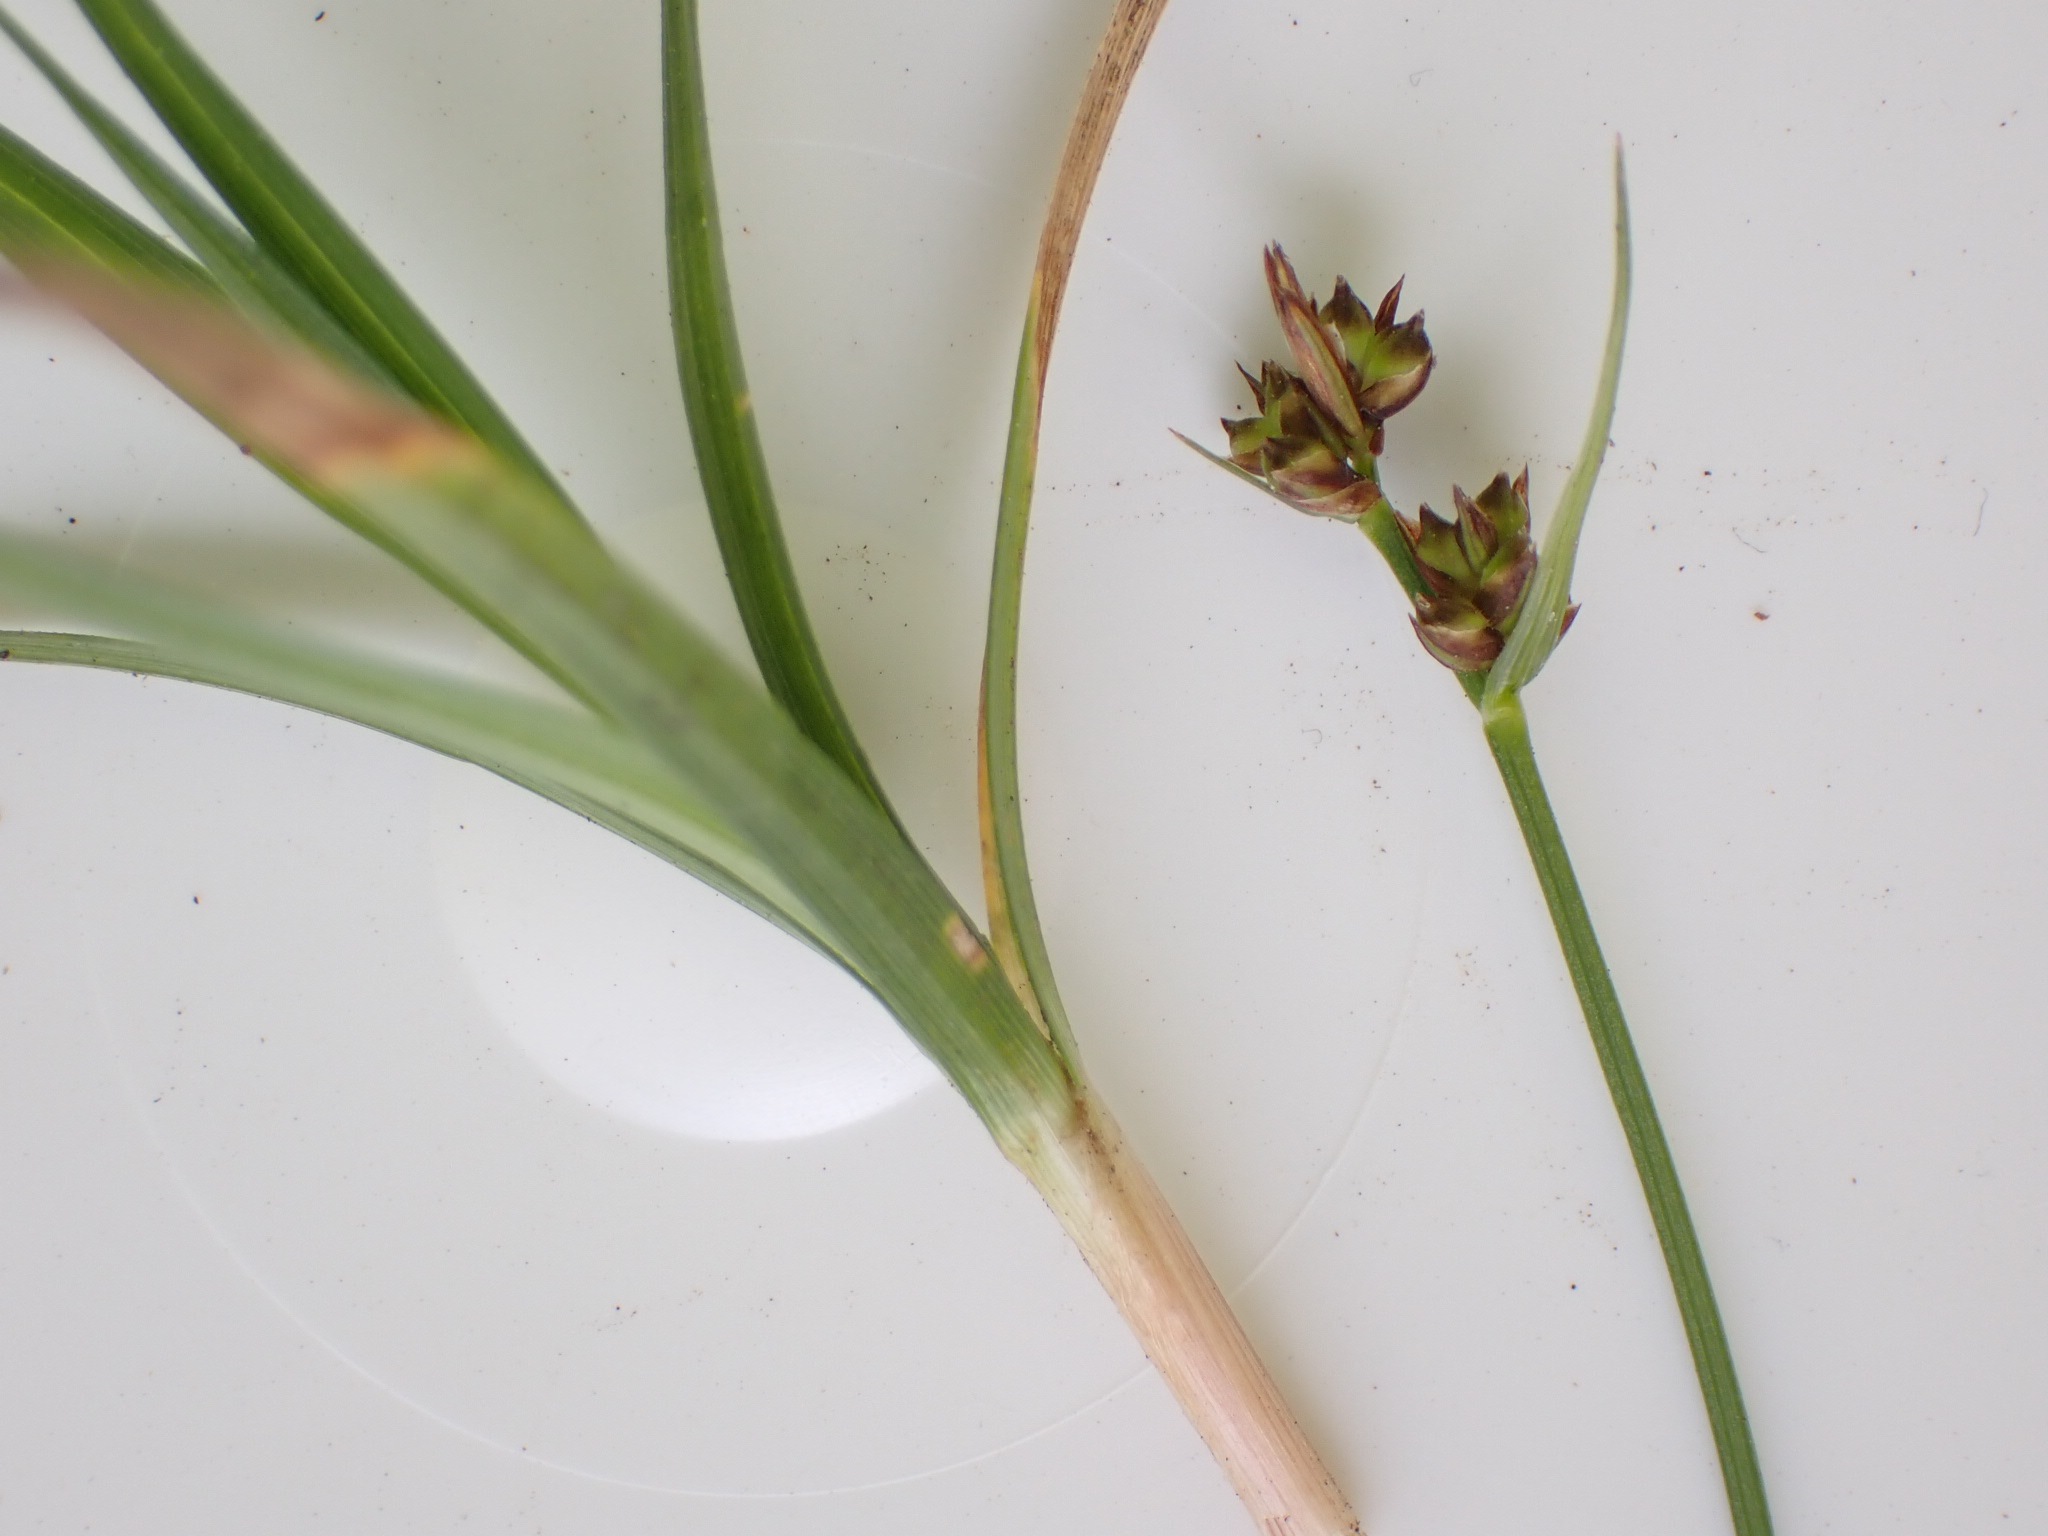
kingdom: Plantae
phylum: Tracheophyta
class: Liliopsida
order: Poales
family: Cyperaceae
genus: Carex
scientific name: Carex pilulifera
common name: Pille-star
